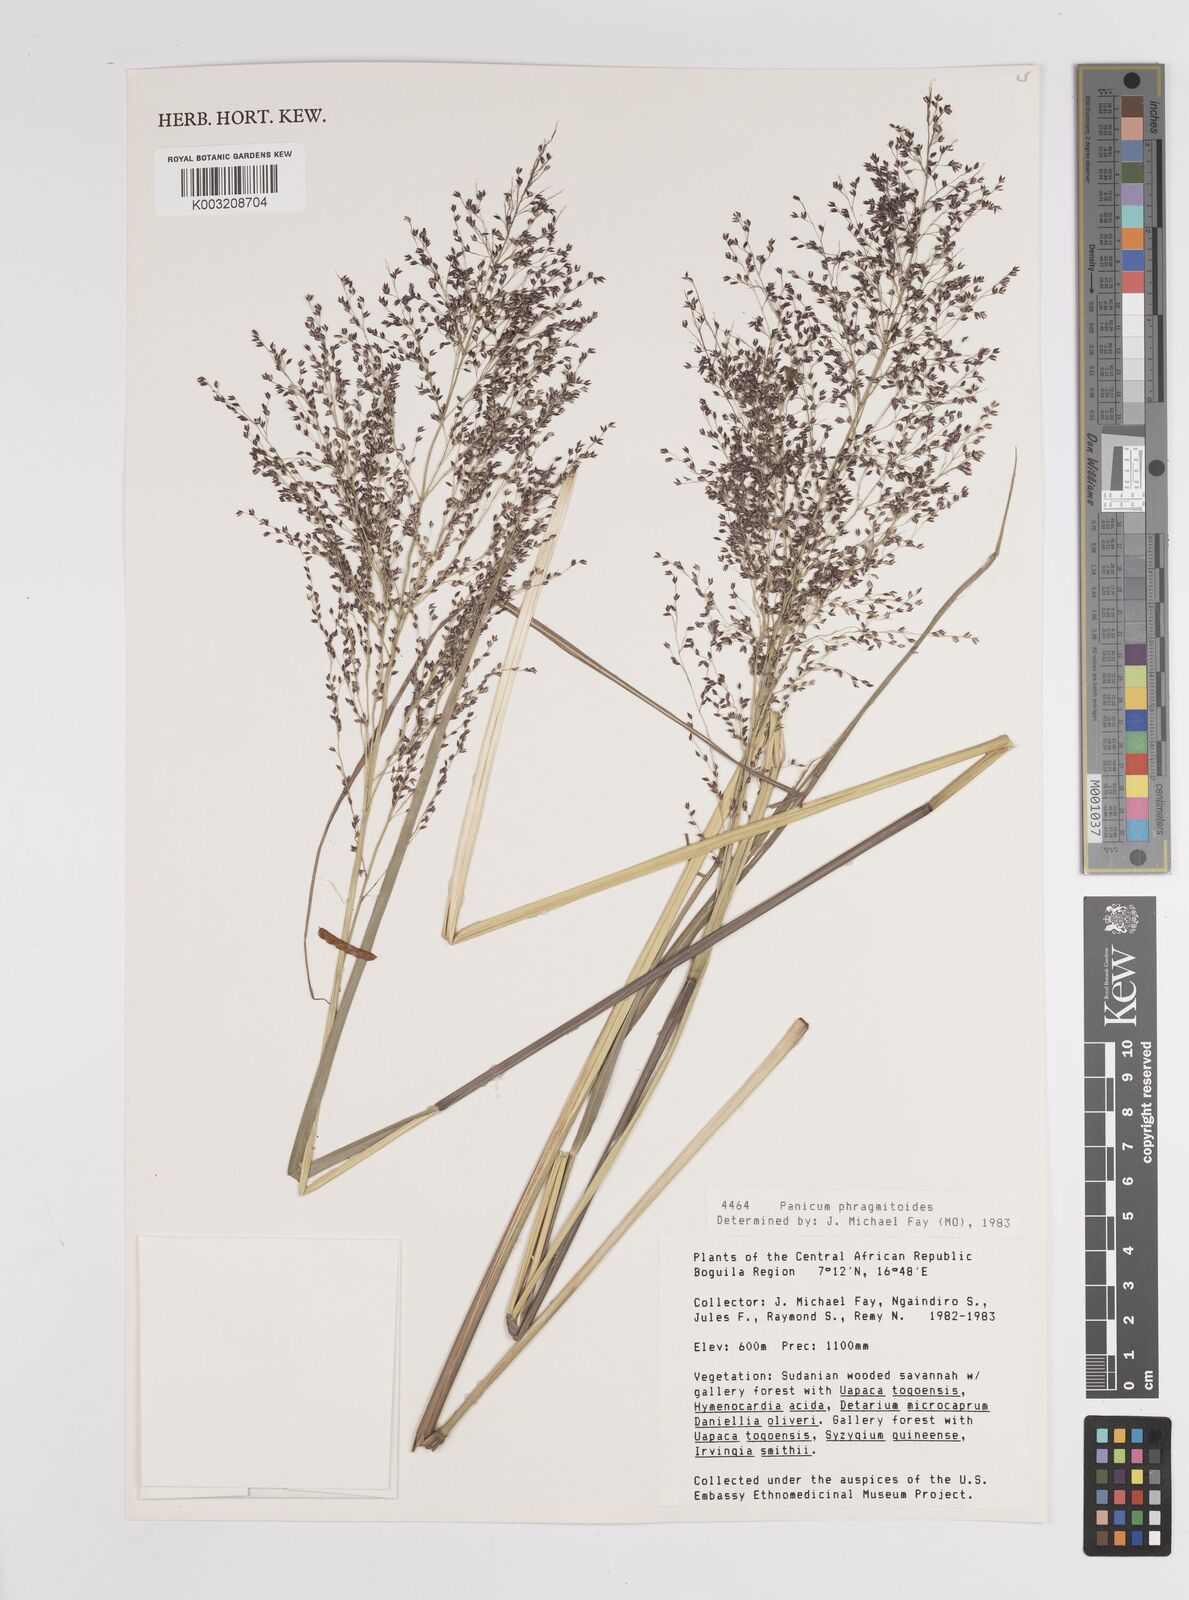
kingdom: Plantae
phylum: Tracheophyta
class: Liliopsida
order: Poales
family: Poaceae
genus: Panicum
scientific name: Panicum phragmitoides
